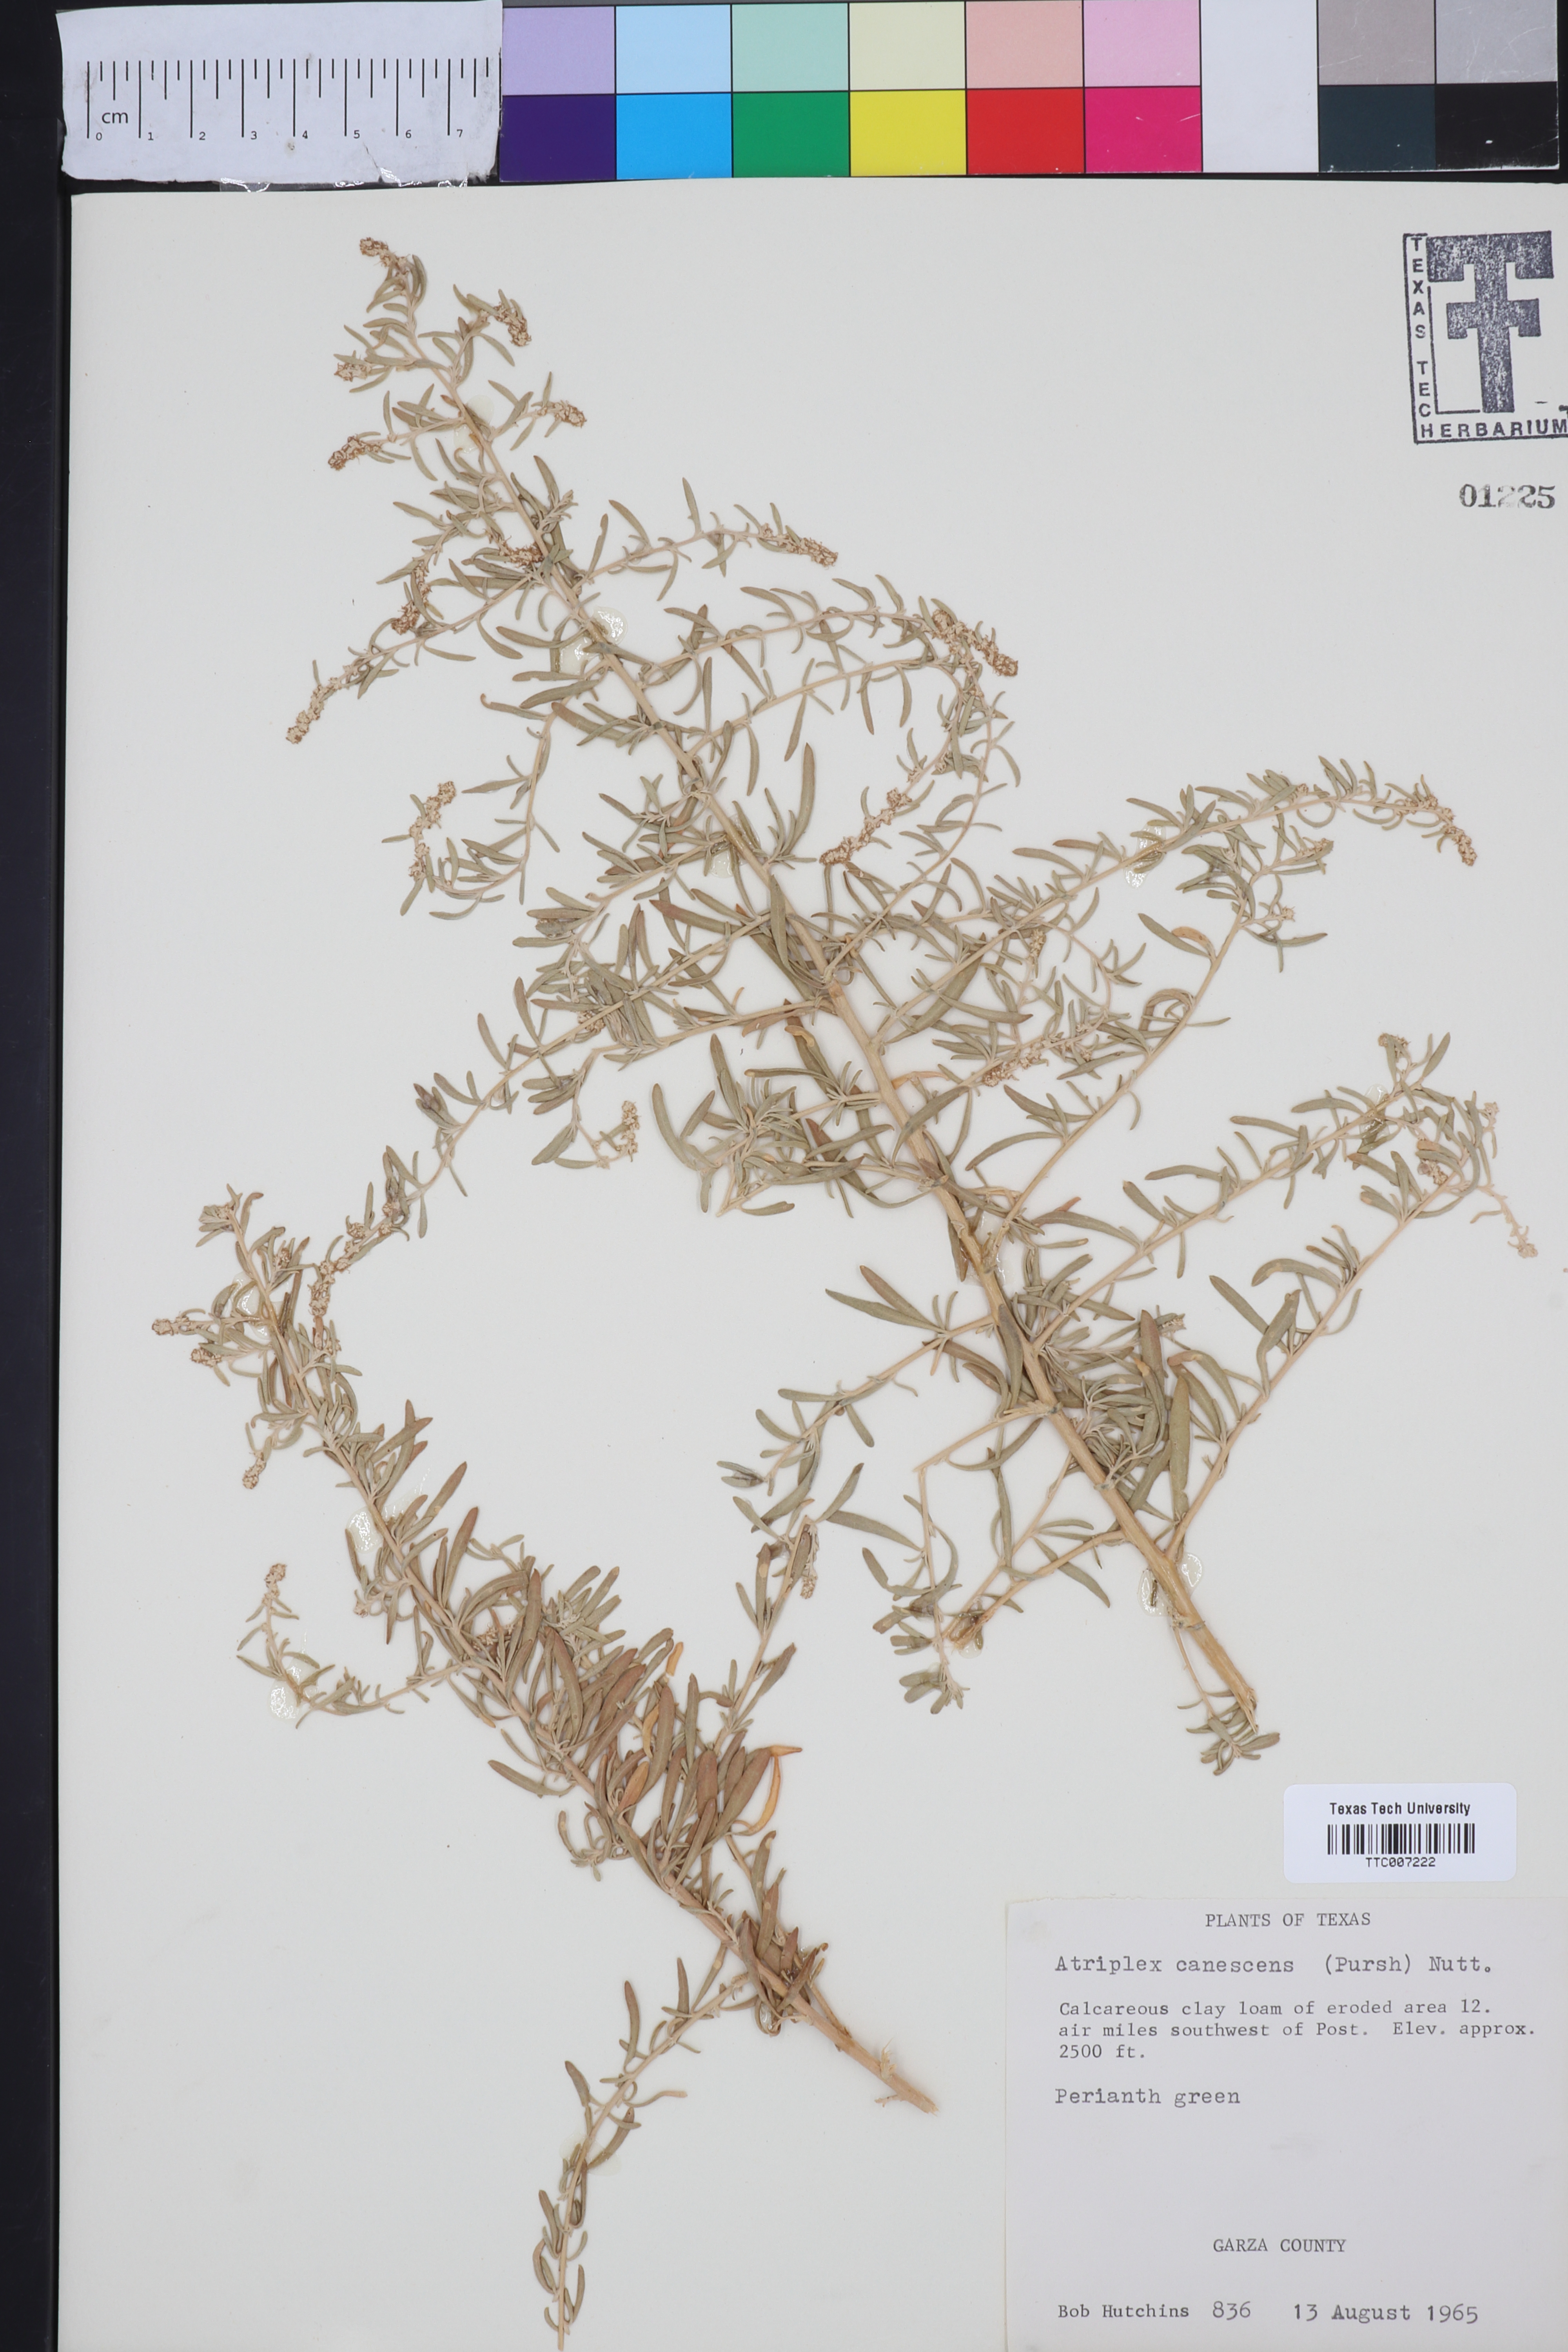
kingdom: Plantae
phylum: Tracheophyta
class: Magnoliopsida
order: Caryophyllales
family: Amaranthaceae
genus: Atriplex
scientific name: Atriplex canescens
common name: Four-wing saltbush
